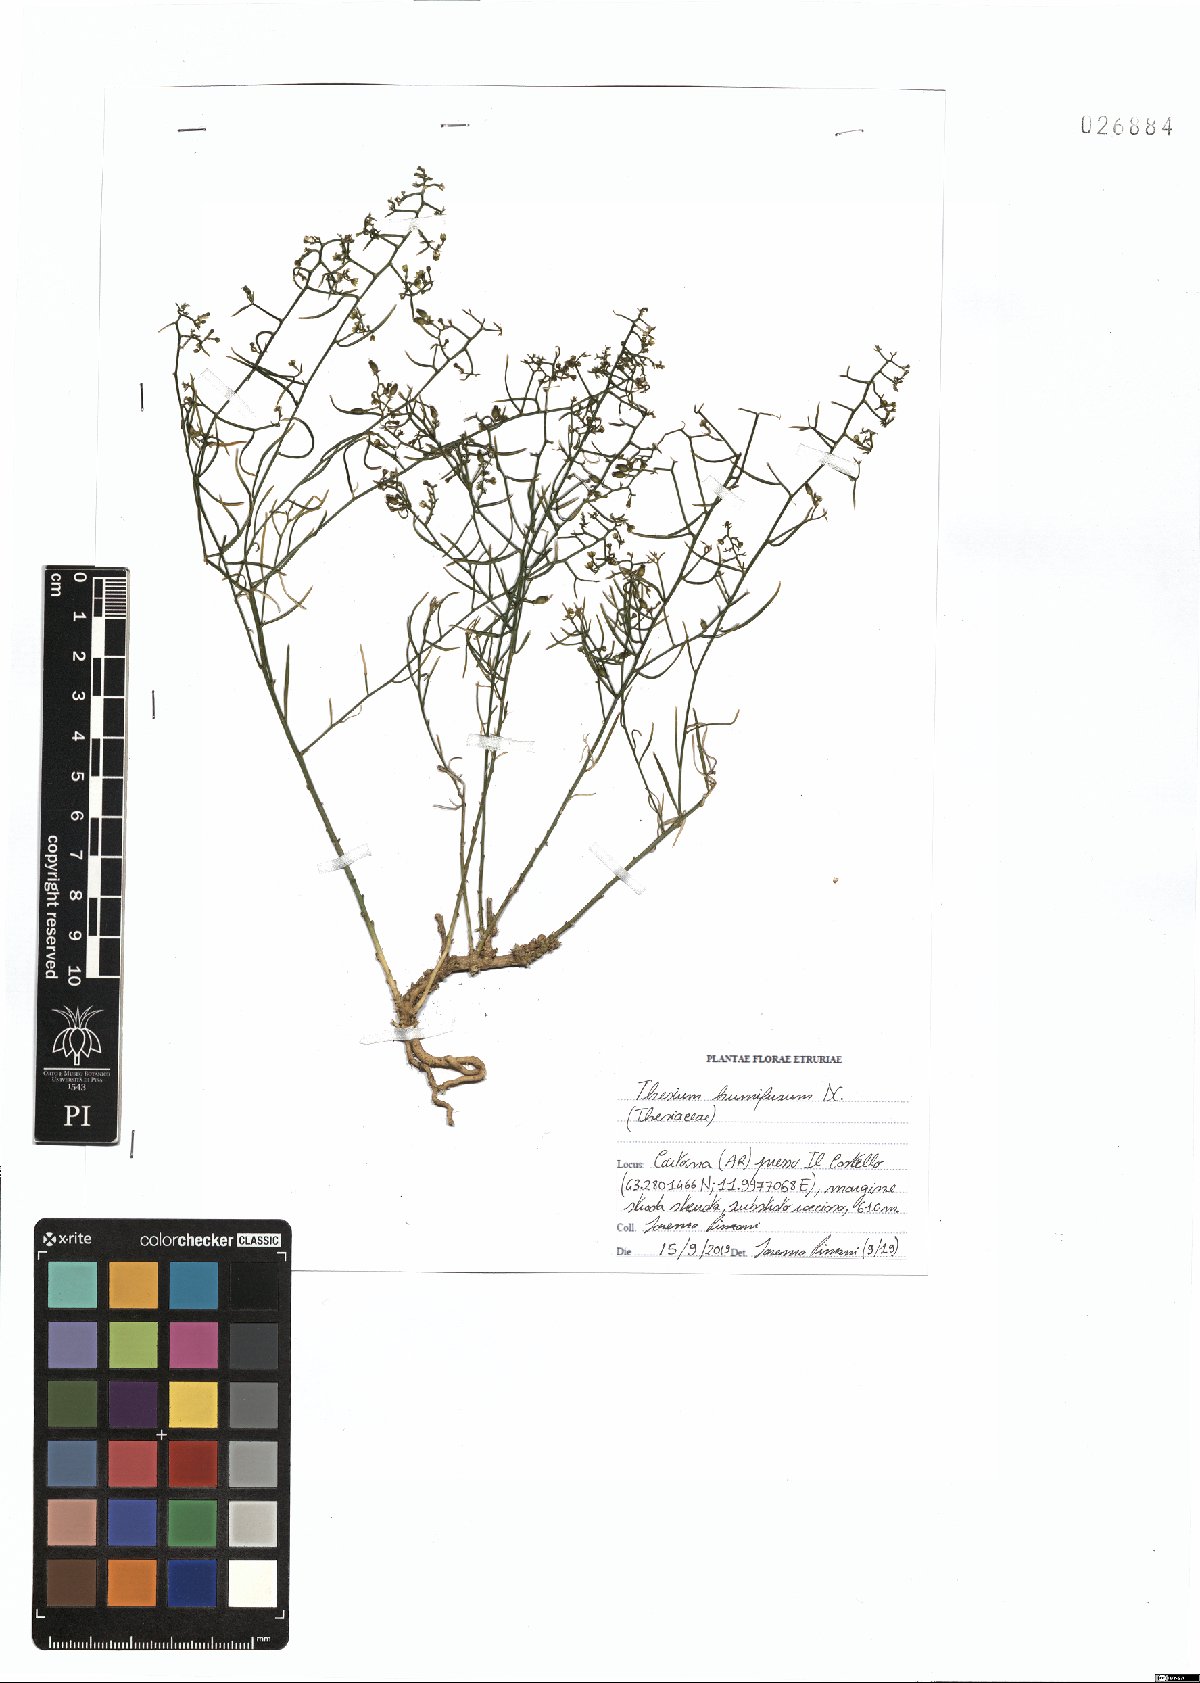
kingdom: Plantae
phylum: Tracheophyta
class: Magnoliopsida
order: Santalales
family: Thesiaceae
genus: Thesium
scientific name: Thesium humifusum
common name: Bastard-toadflax
